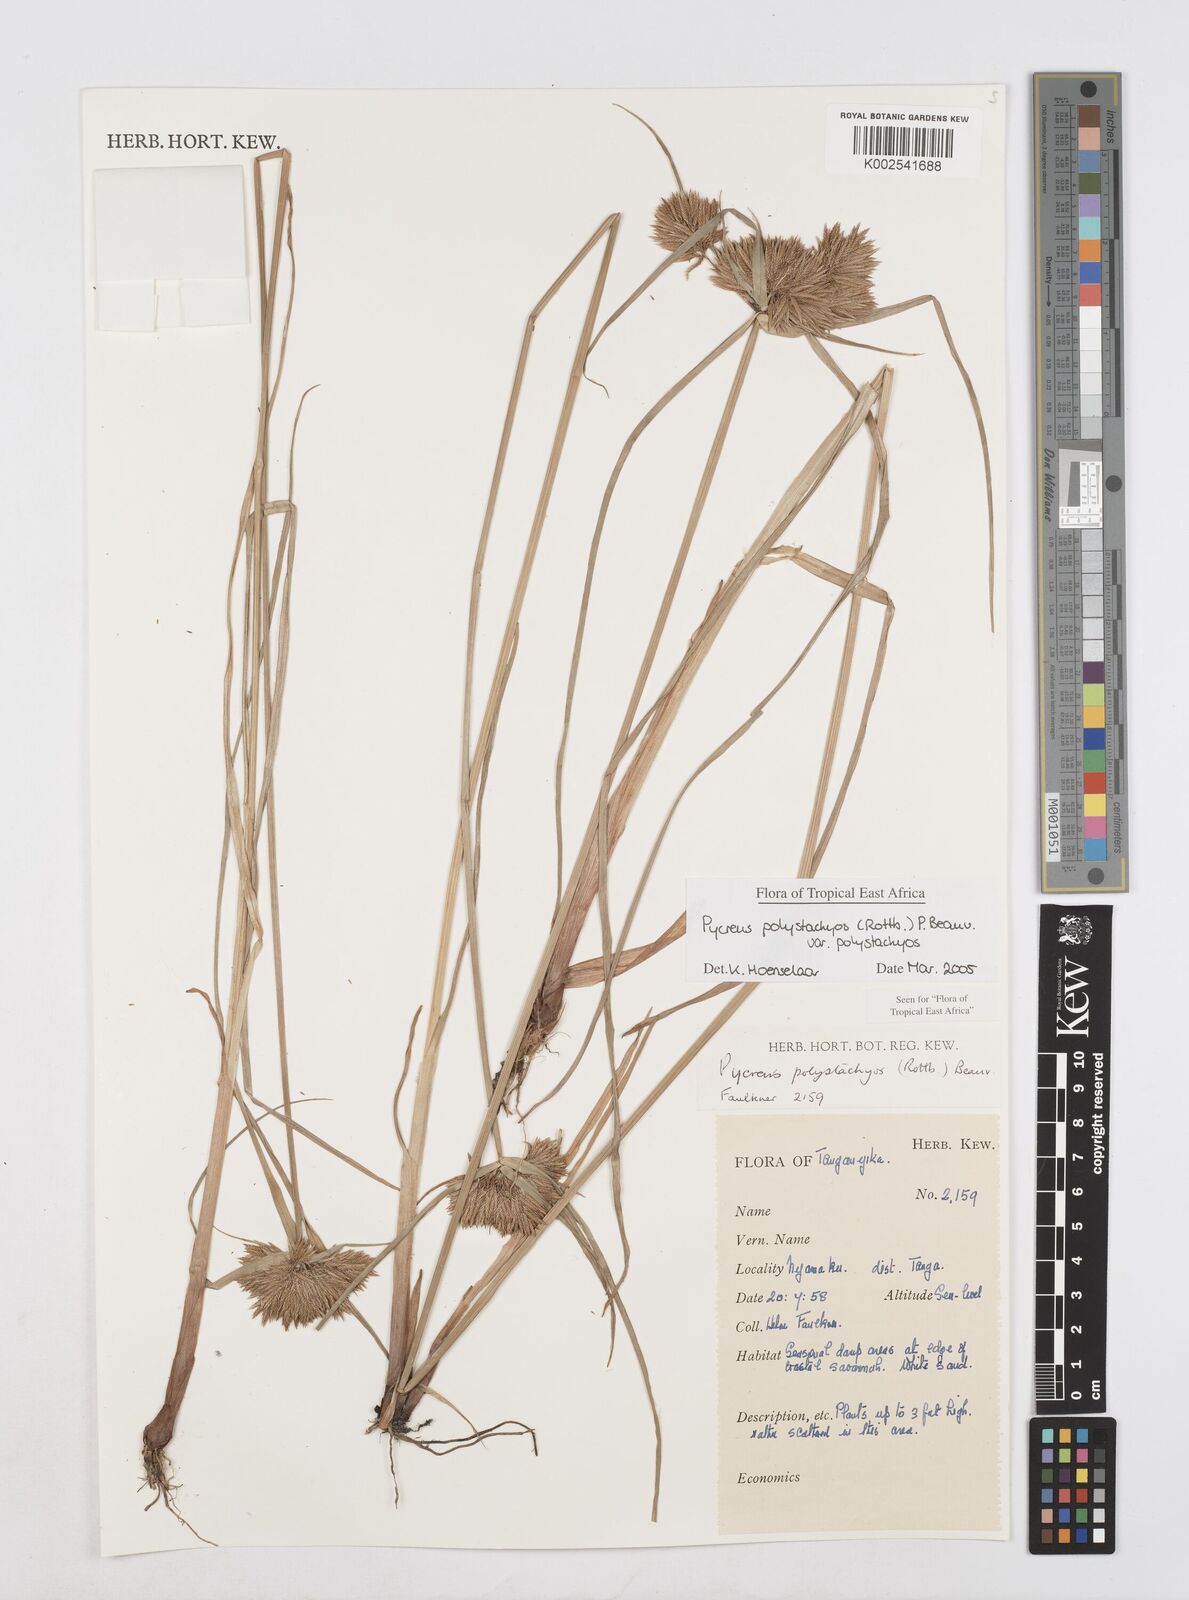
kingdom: Plantae
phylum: Tracheophyta
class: Liliopsida
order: Poales
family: Cyperaceae
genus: Cyperus
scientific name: Cyperus polystachyos
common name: Bunchy flat sedge
